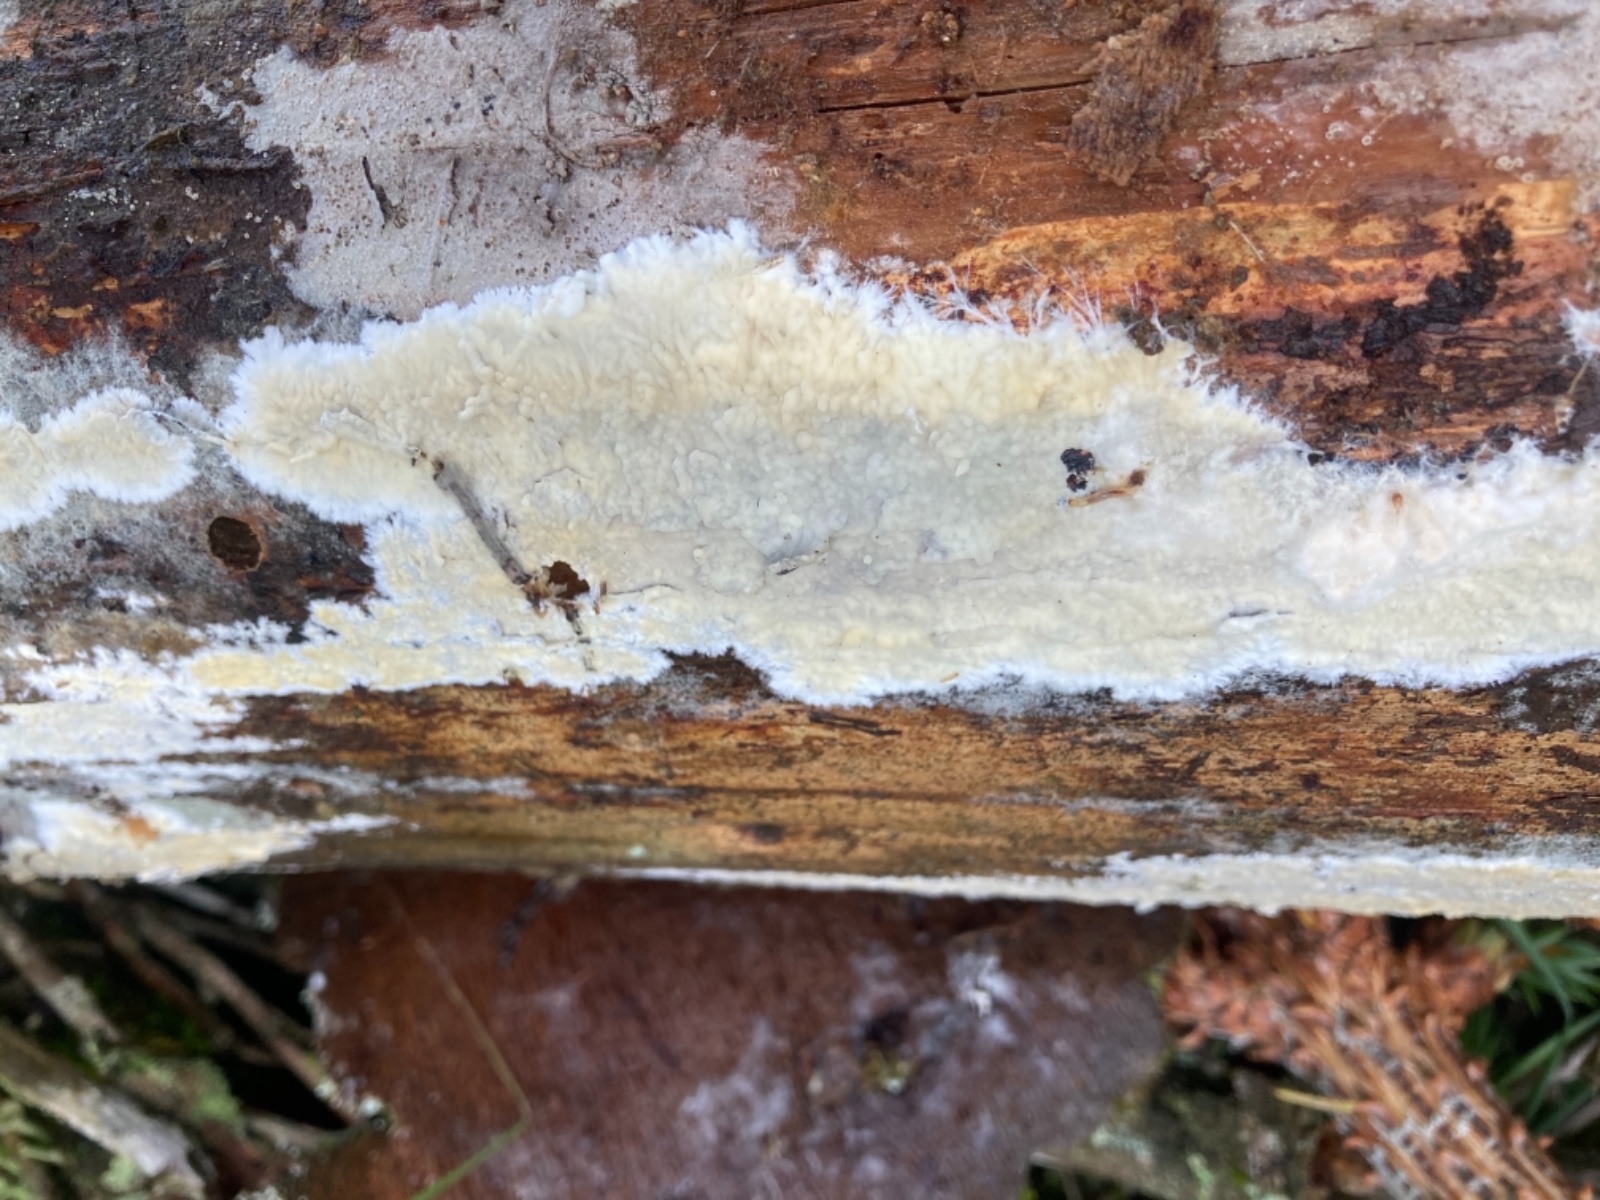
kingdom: Fungi
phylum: Basidiomycota
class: Agaricomycetes
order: Russulales
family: Peniophoraceae
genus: Gloiothele
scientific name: Gloiothele citrina
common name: citronskorpe
